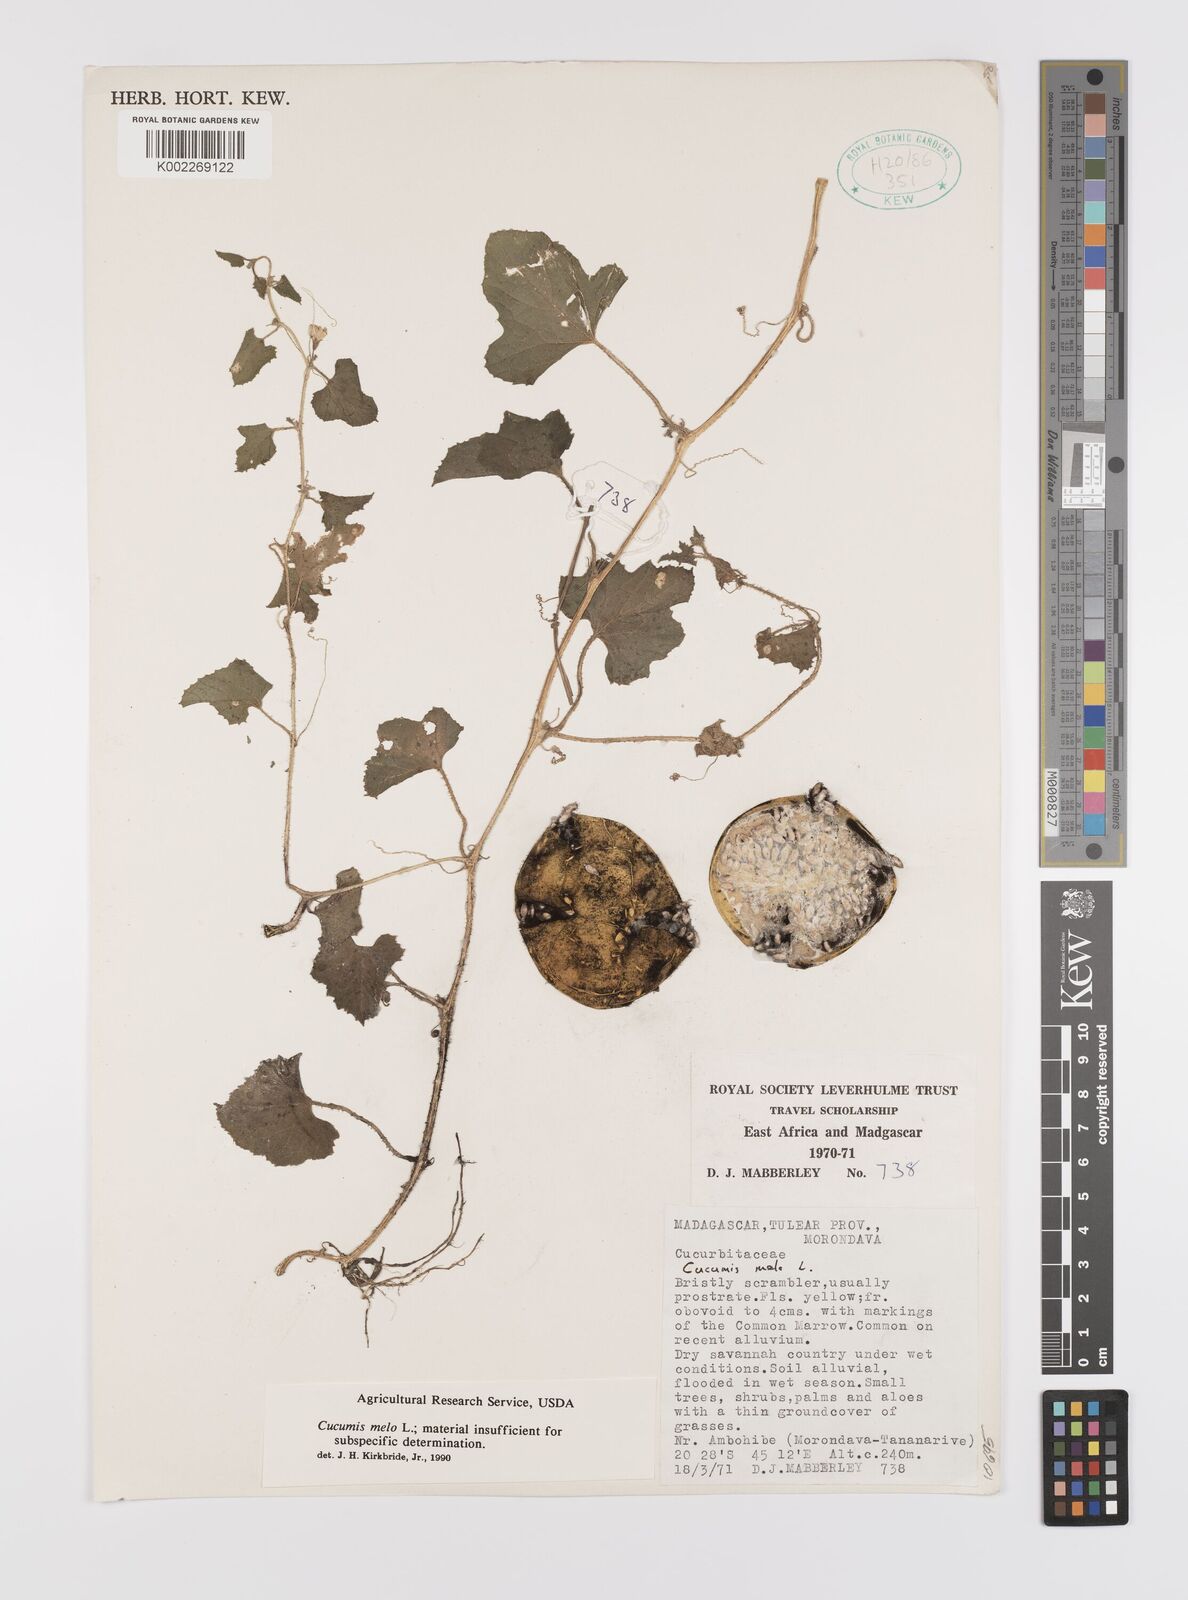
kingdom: Plantae
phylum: Tracheophyta
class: Magnoliopsida
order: Cucurbitales
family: Cucurbitaceae
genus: Cucumis
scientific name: Cucumis melo
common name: Melon
